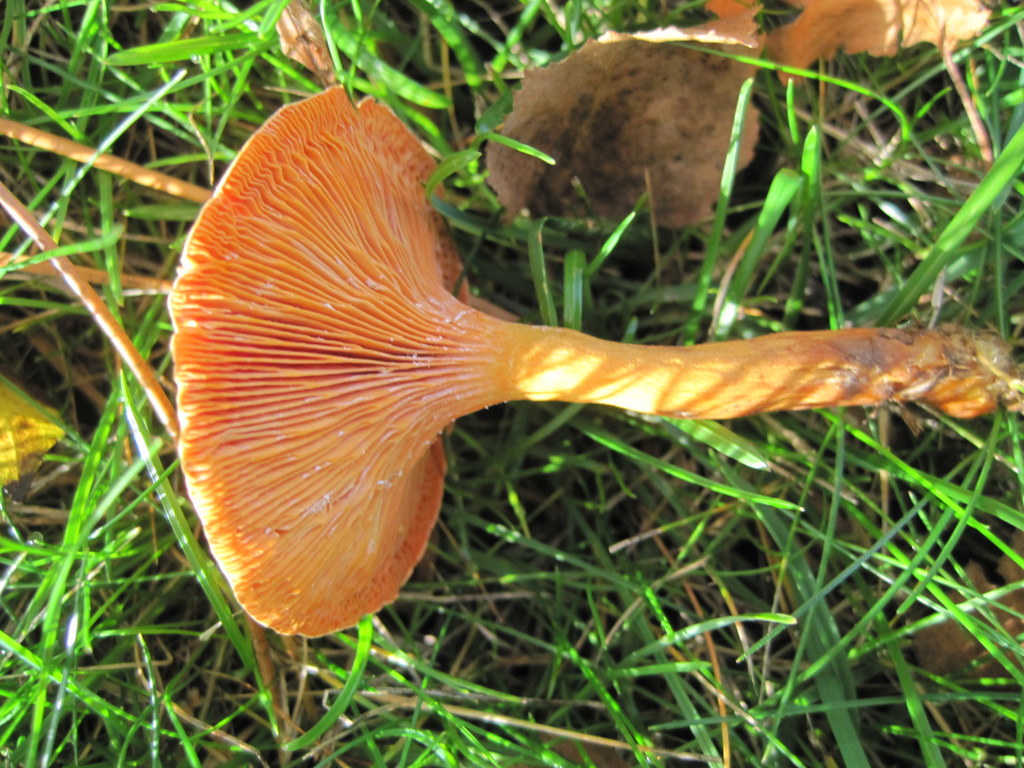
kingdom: Fungi
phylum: Basidiomycota
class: Agaricomycetes
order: Boletales
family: Hygrophoropsidaceae
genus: Hygrophoropsis
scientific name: Hygrophoropsis aurantiaca
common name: almindelig orangekantarel
